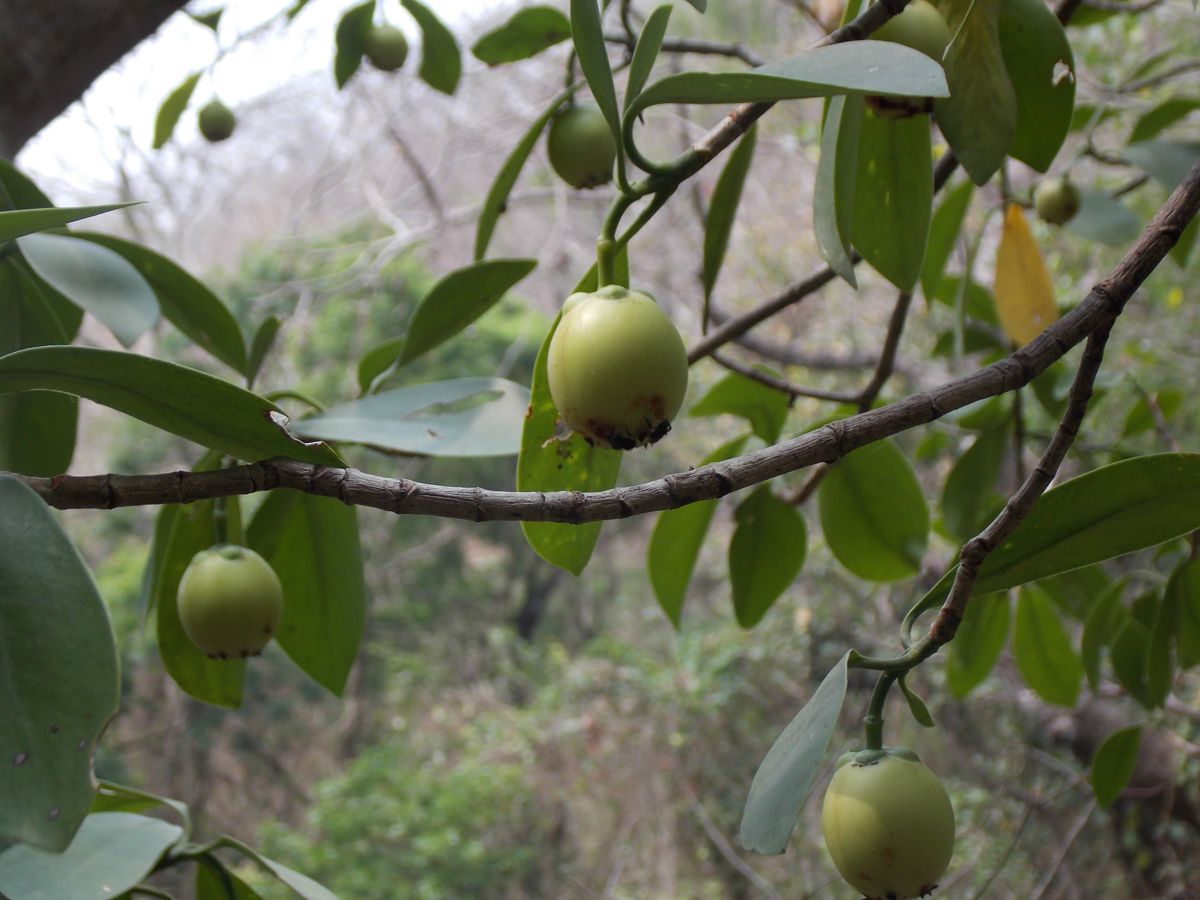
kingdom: Plantae
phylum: Tracheophyta
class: Magnoliopsida
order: Malpighiales
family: Clusiaceae
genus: Clusia
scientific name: Clusia guatemalensis
